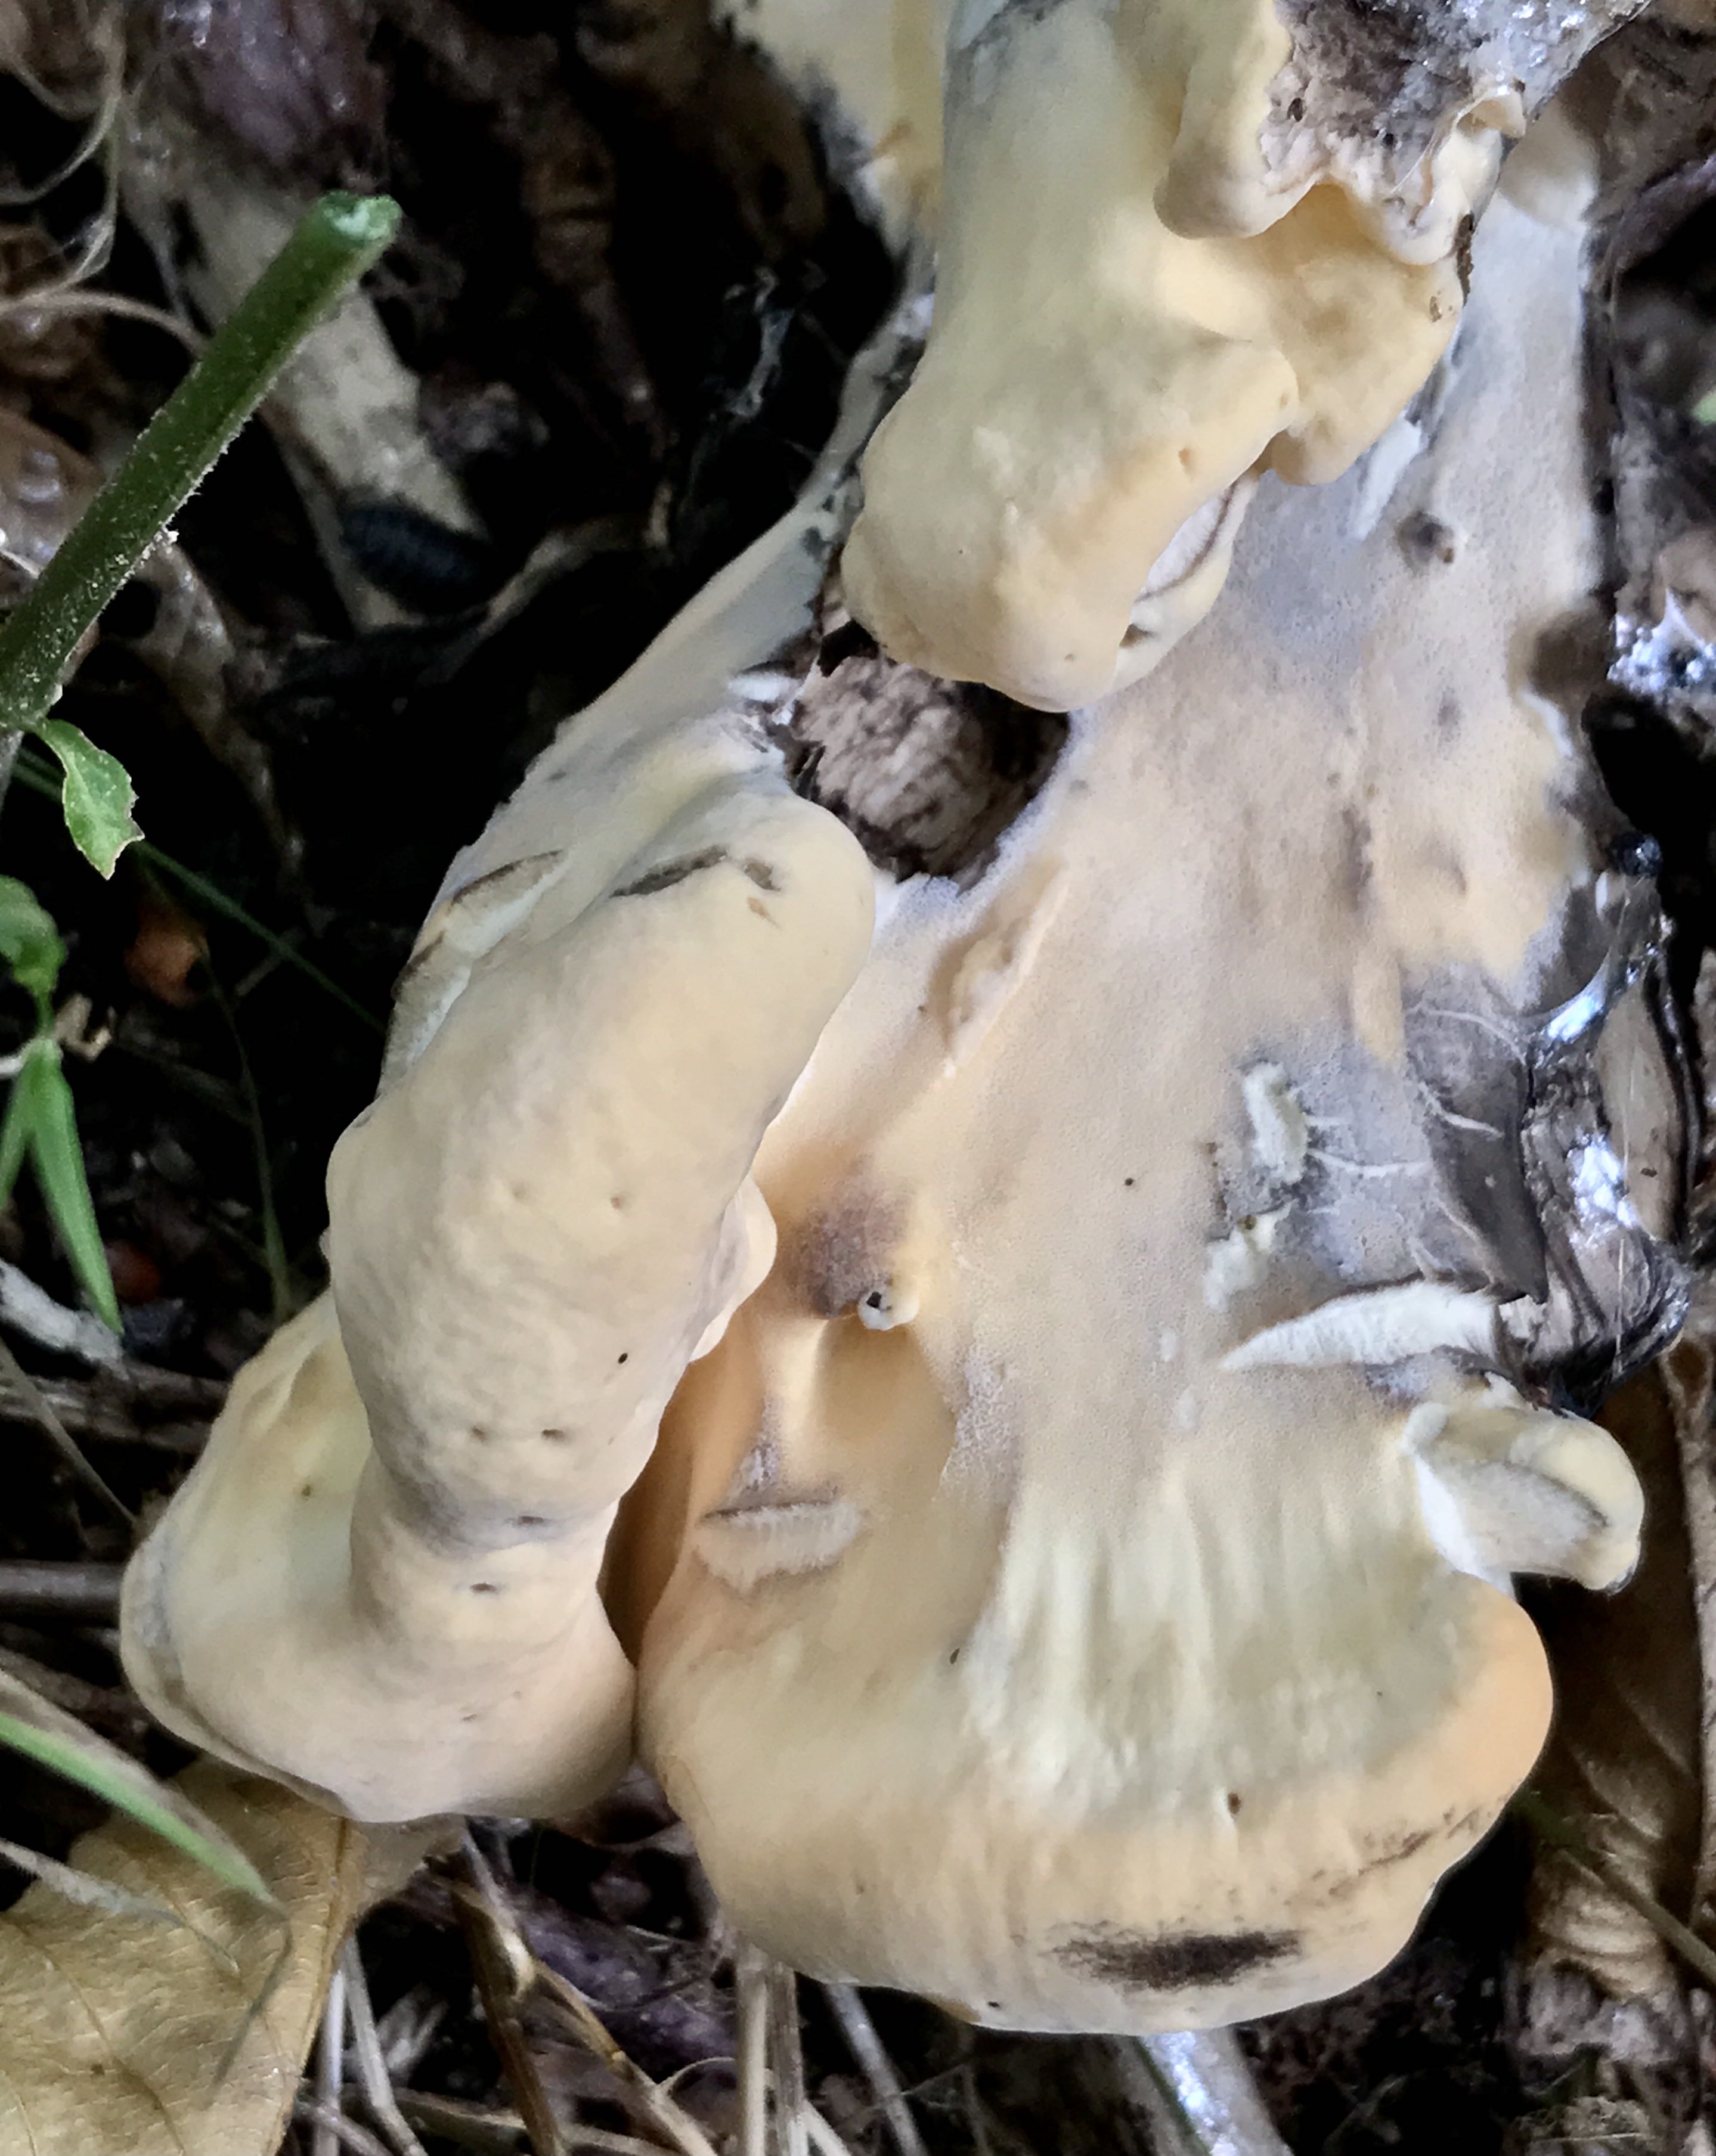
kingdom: Fungi
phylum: Basidiomycota
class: Agaricomycetes
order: Polyporales
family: Meripilaceae
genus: Meripilus
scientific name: Meripilus giganteus
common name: kæmpeporesvamp
